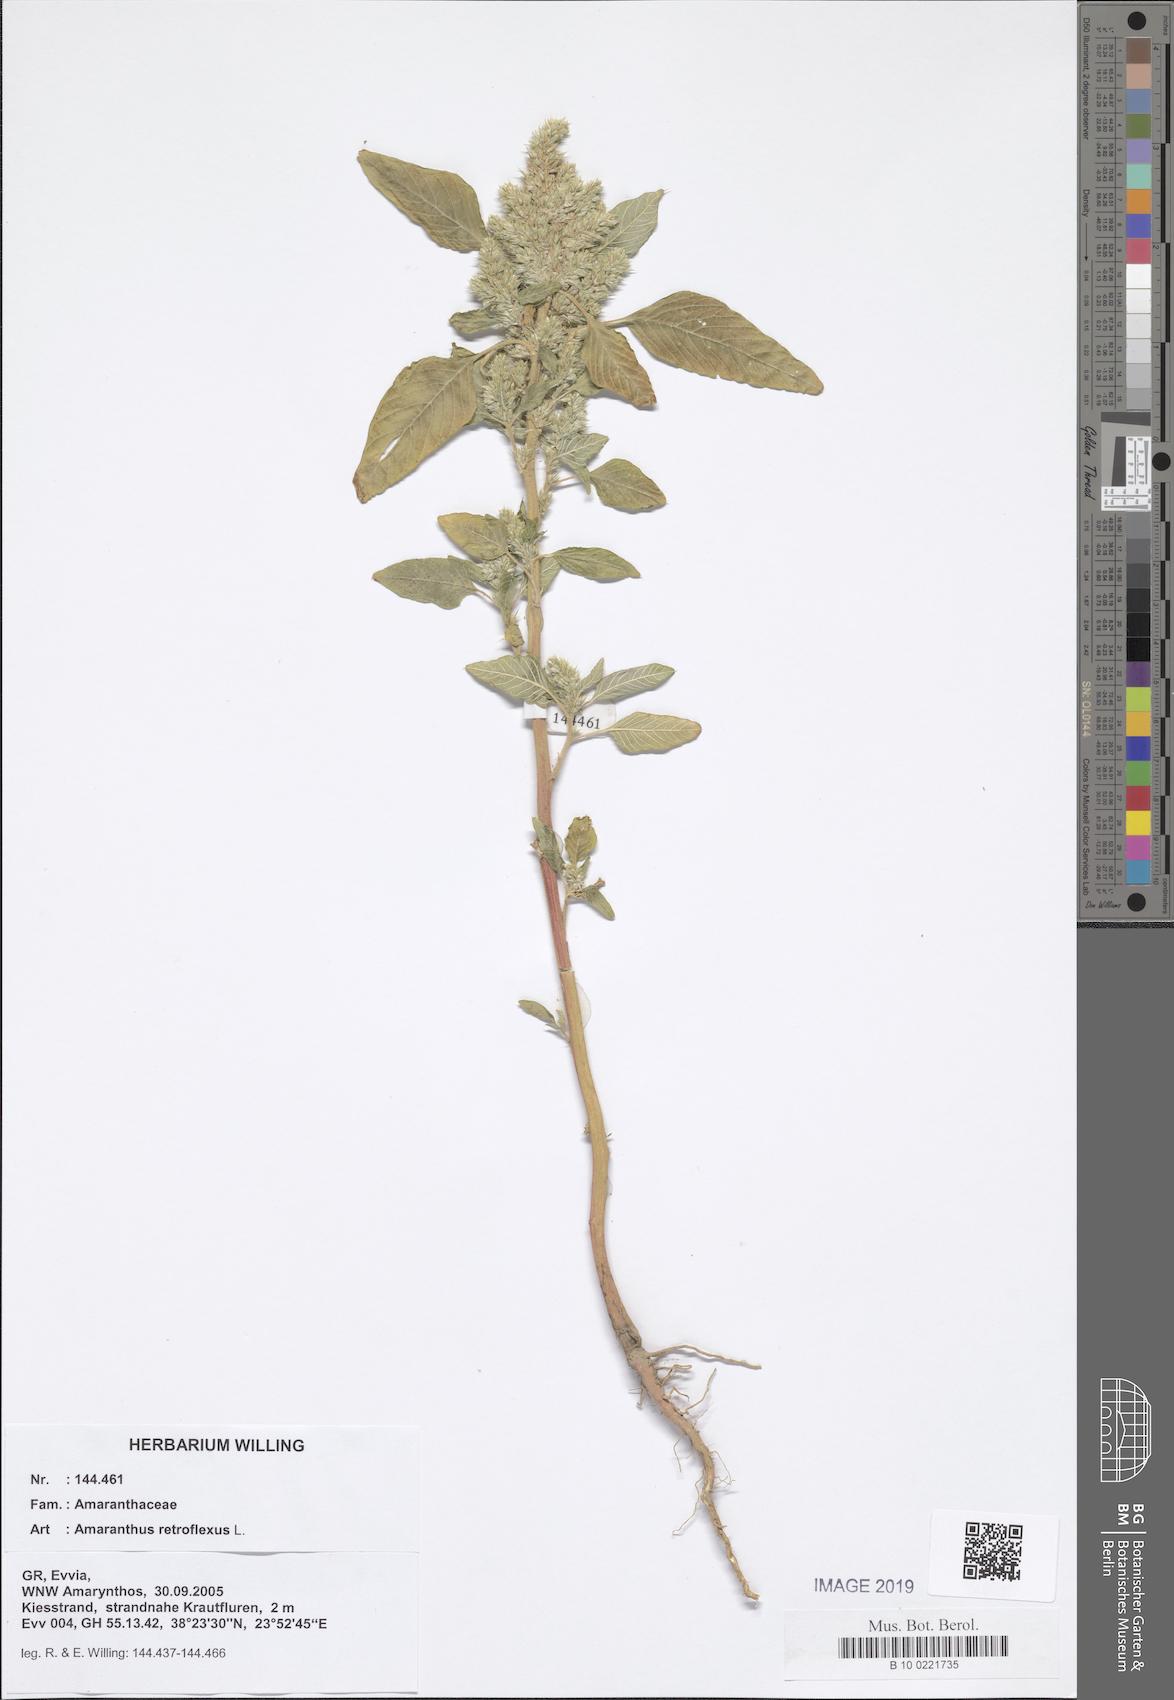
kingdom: Plantae
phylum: Tracheophyta
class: Magnoliopsida
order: Caryophyllales
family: Amaranthaceae
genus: Amaranthus
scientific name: Amaranthus retroflexus
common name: Redroot amaranth
